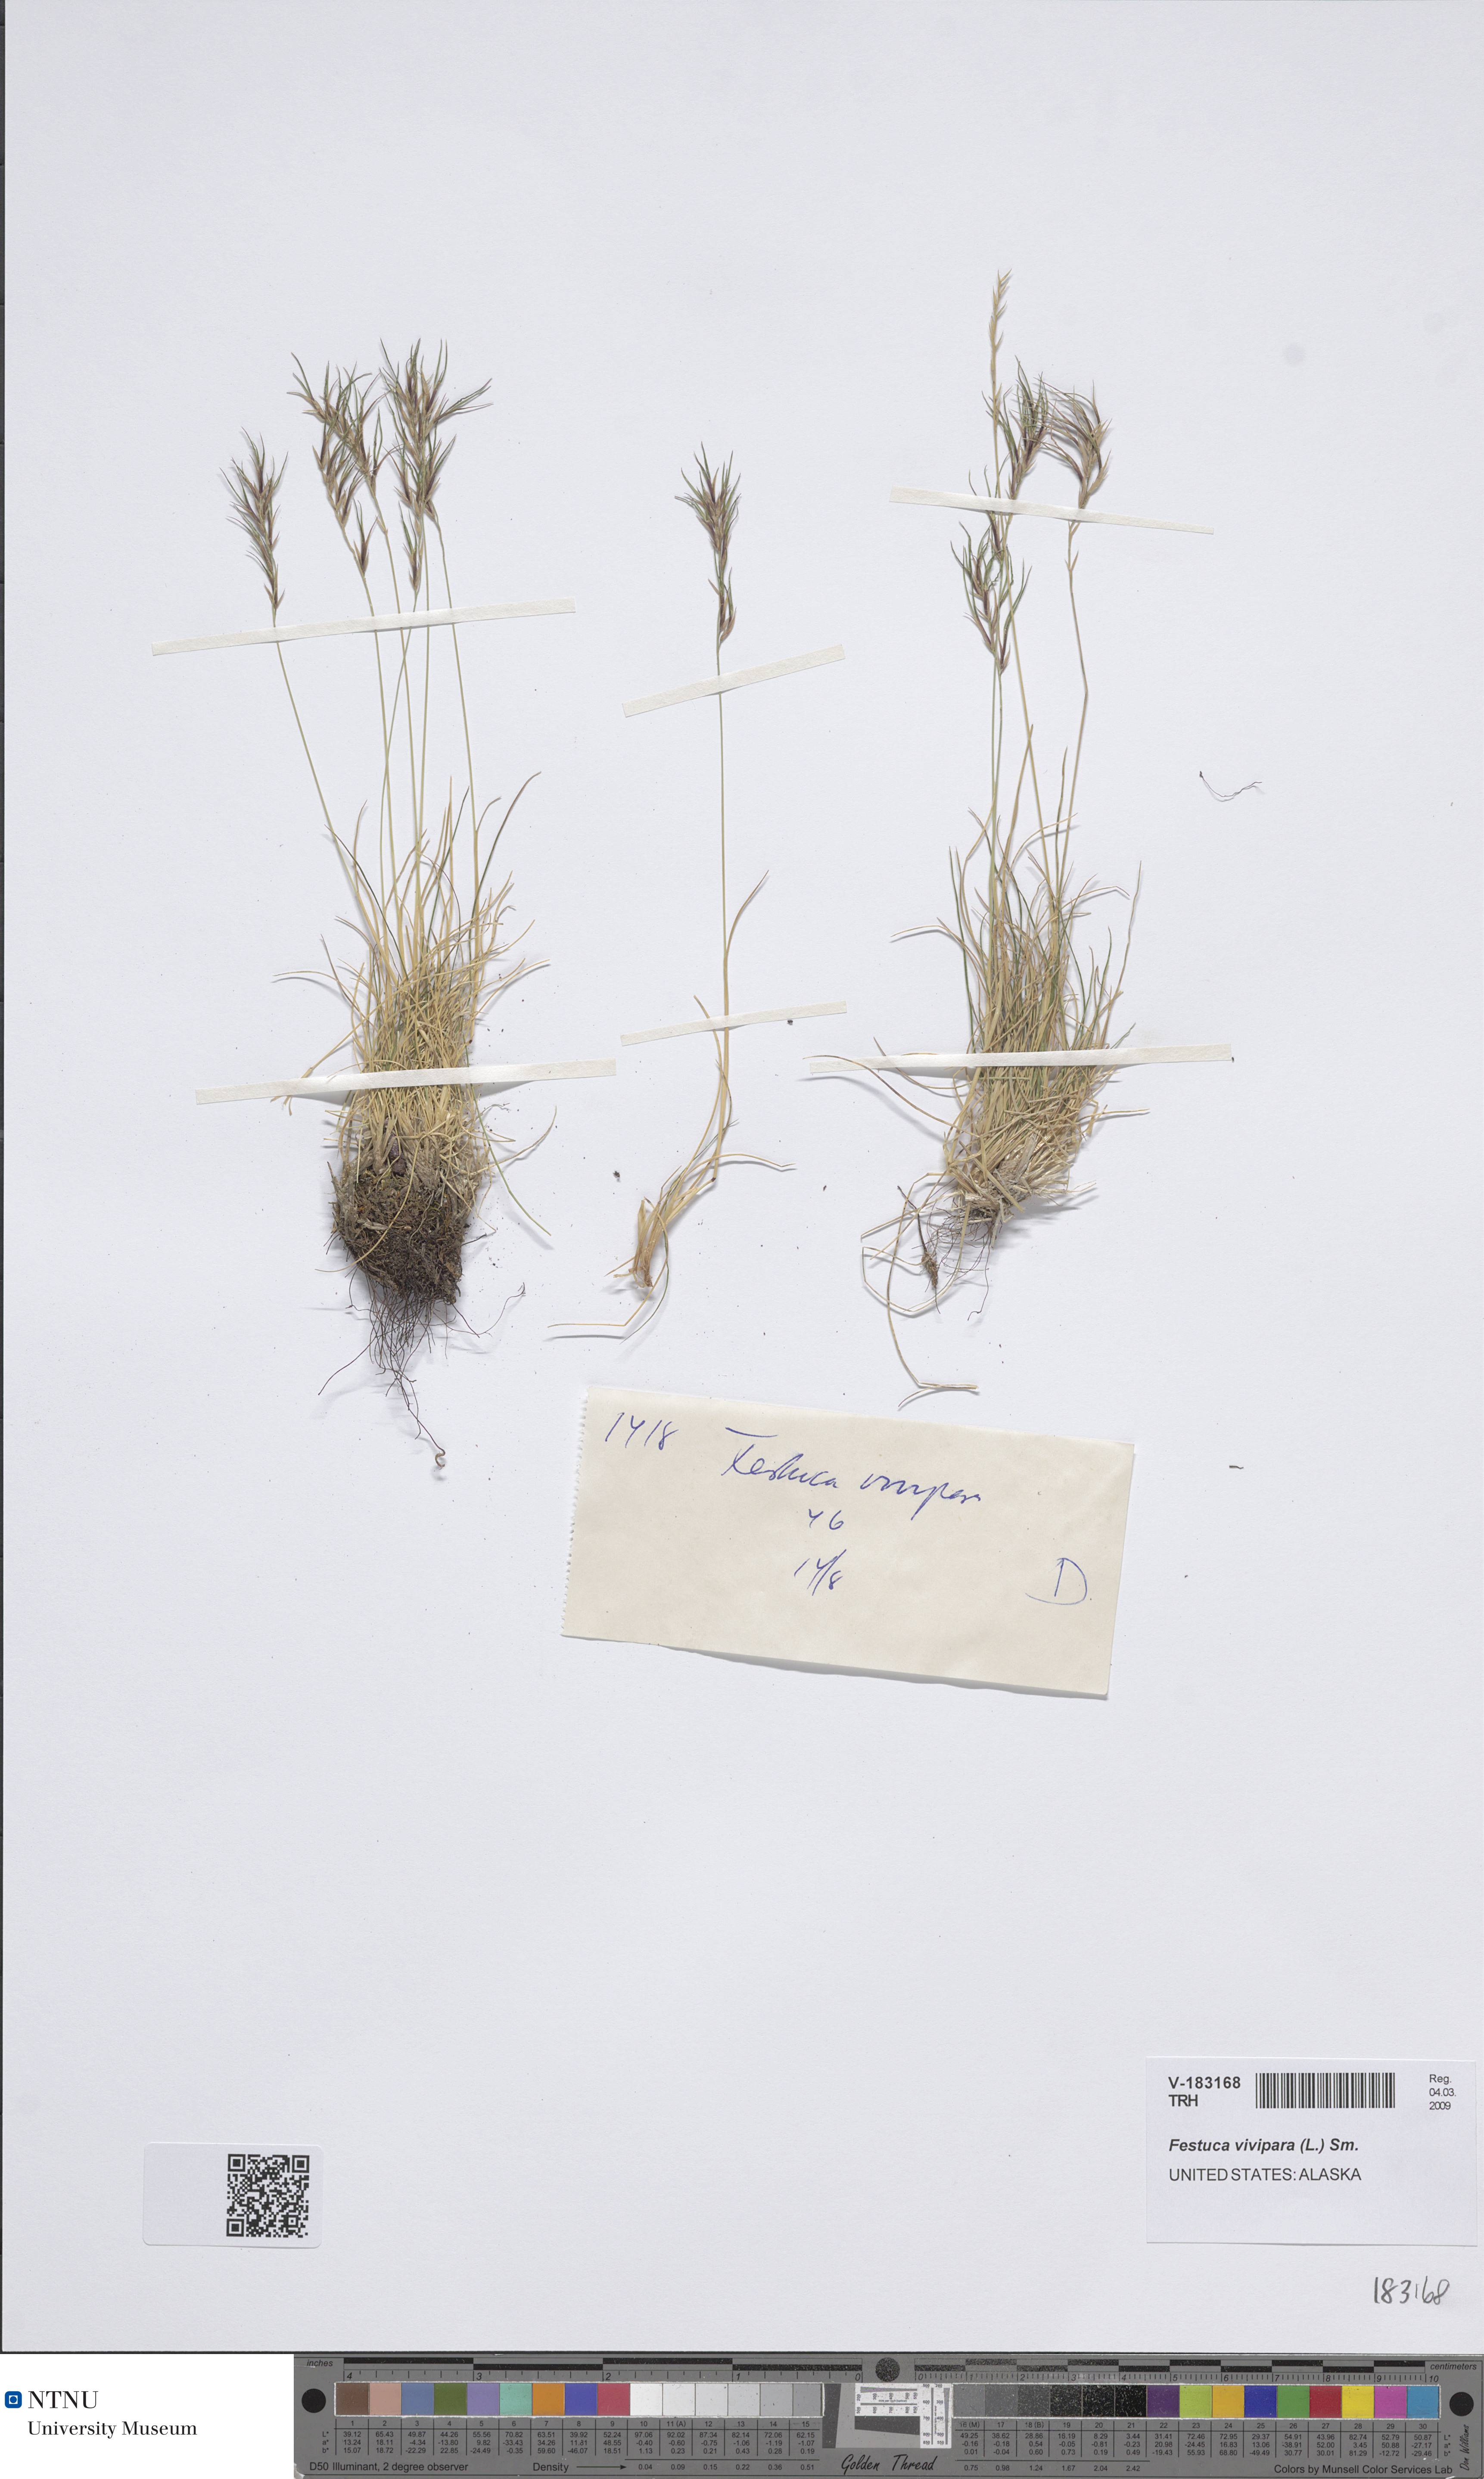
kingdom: Plantae
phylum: Tracheophyta
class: Liliopsida
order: Poales
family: Poaceae
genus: Festuca
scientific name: Festuca vivipara
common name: Viviparous sheep's-fescue
